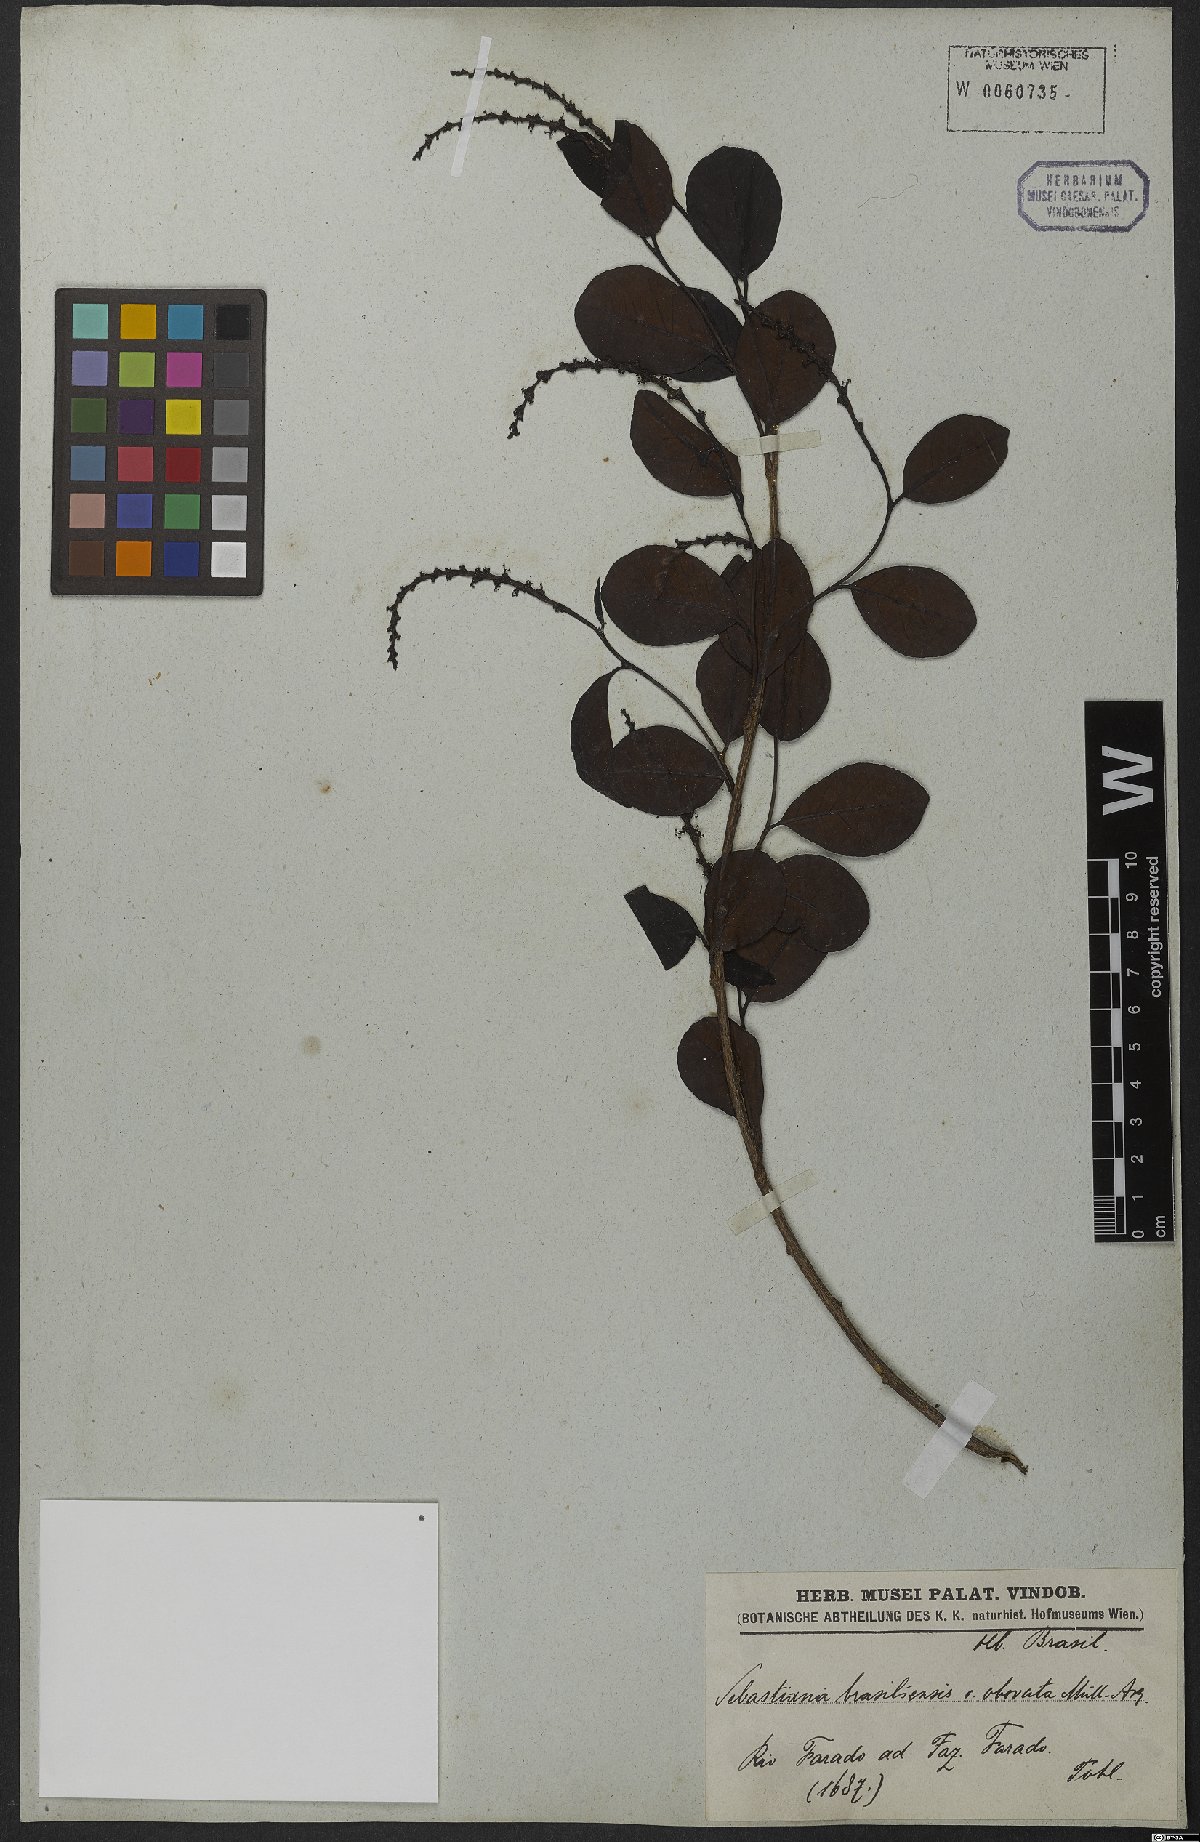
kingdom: Plantae
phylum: Tracheophyta
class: Magnoliopsida
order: Malpighiales
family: Euphorbiaceae
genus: Sebastiania
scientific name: Sebastiania ramosissima
